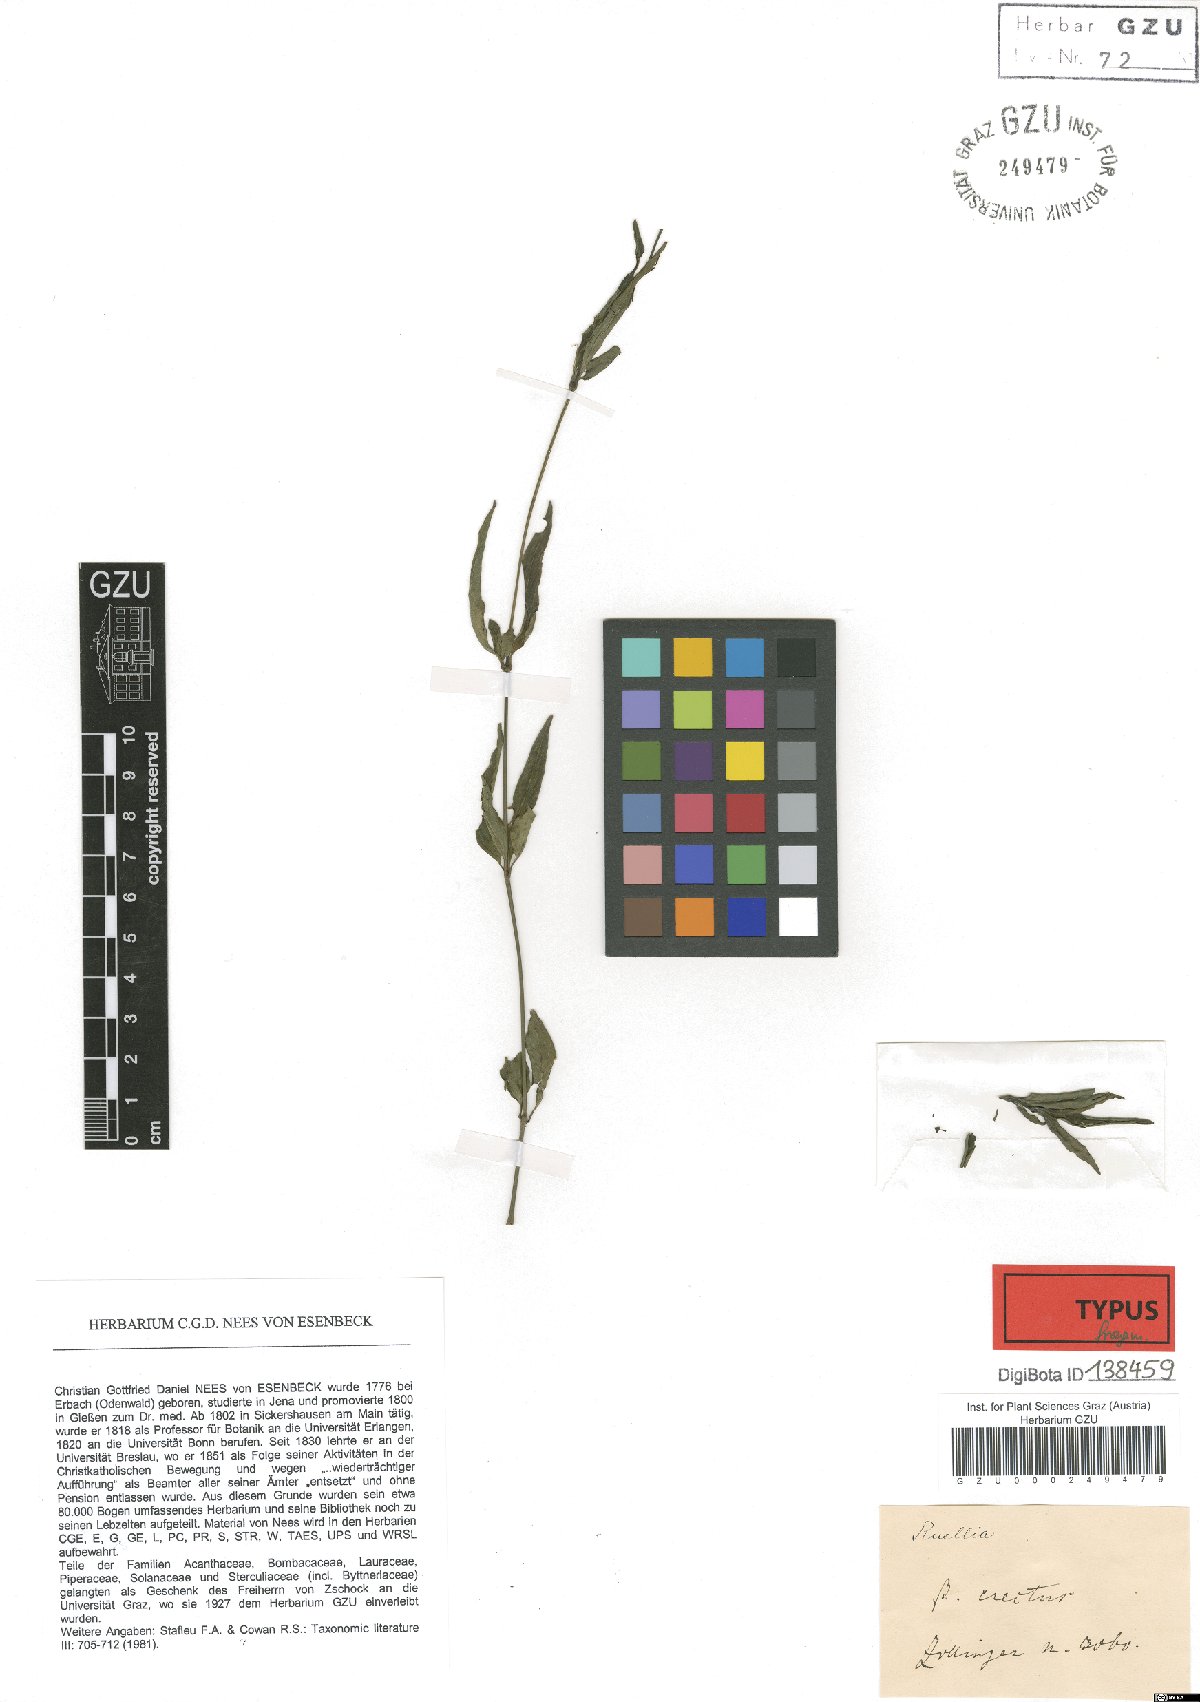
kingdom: Plantae
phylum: Tracheophyta
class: Magnoliopsida
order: Lamiales
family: Acanthaceae
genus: Ruellia
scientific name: Ruellia repens
